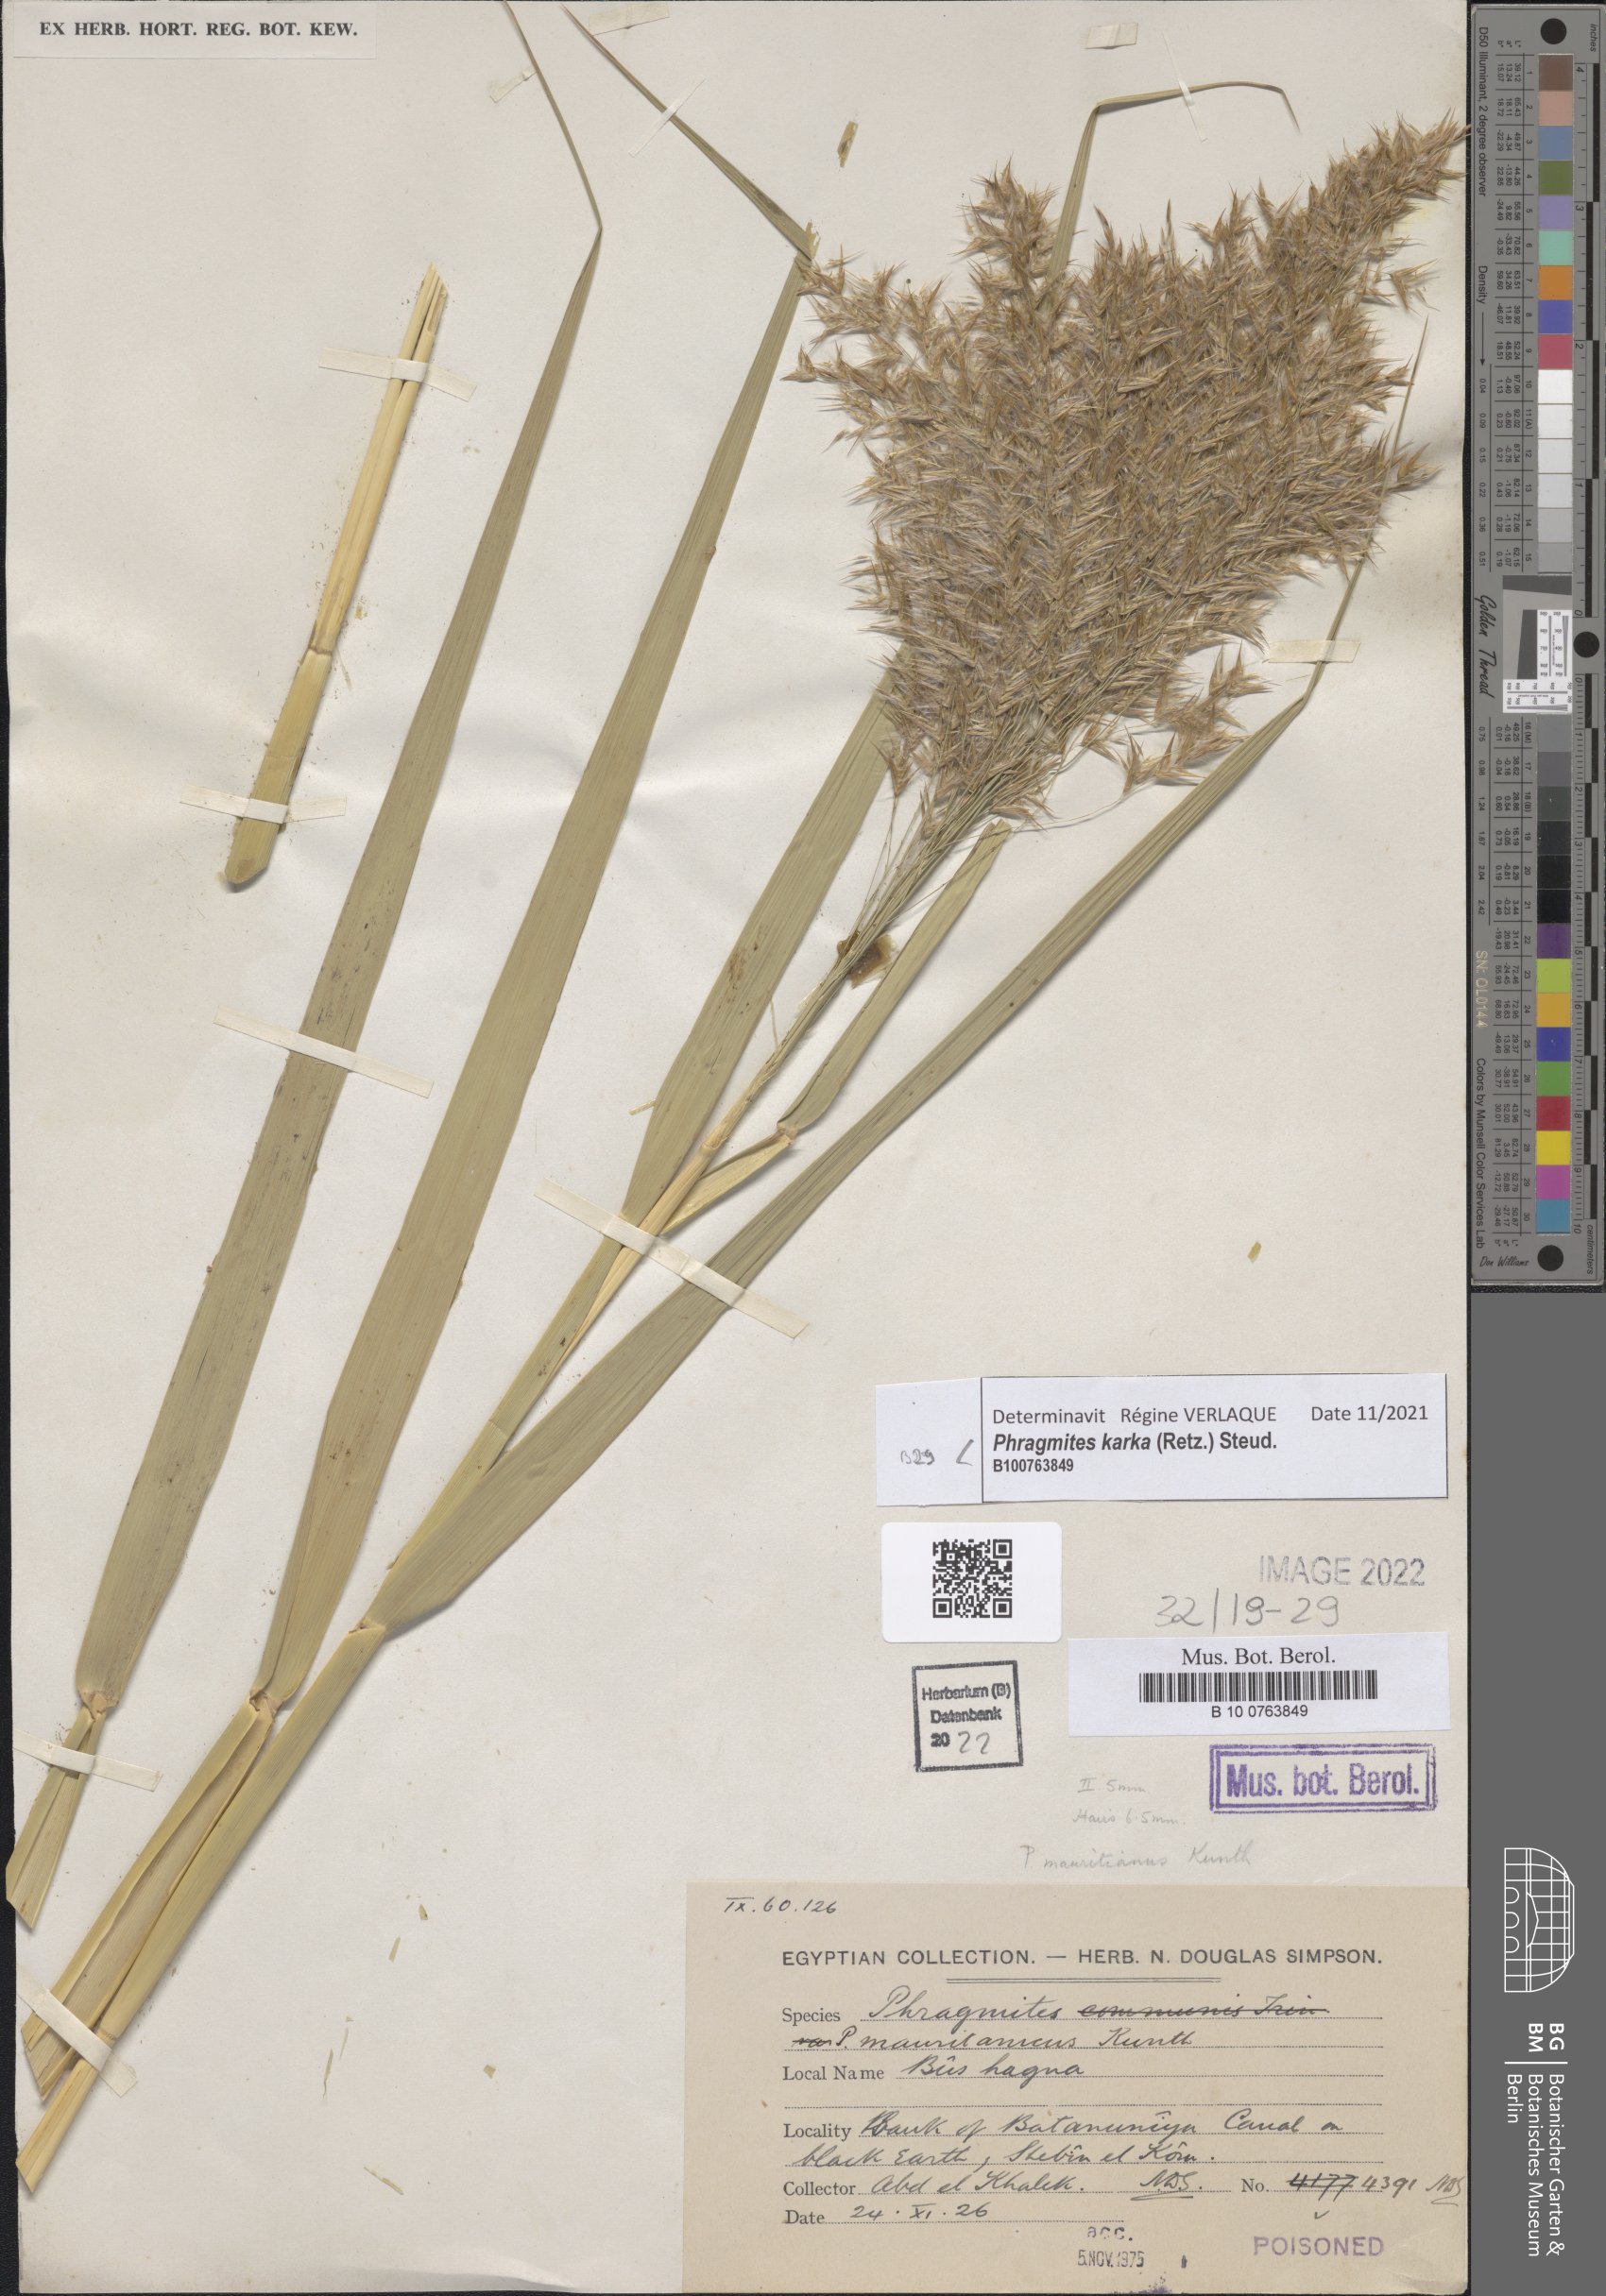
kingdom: Plantae
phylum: Tracheophyta
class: Liliopsida
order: Poales
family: Poaceae
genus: Phragmites
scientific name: Phragmites karka
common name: Tropical reed
